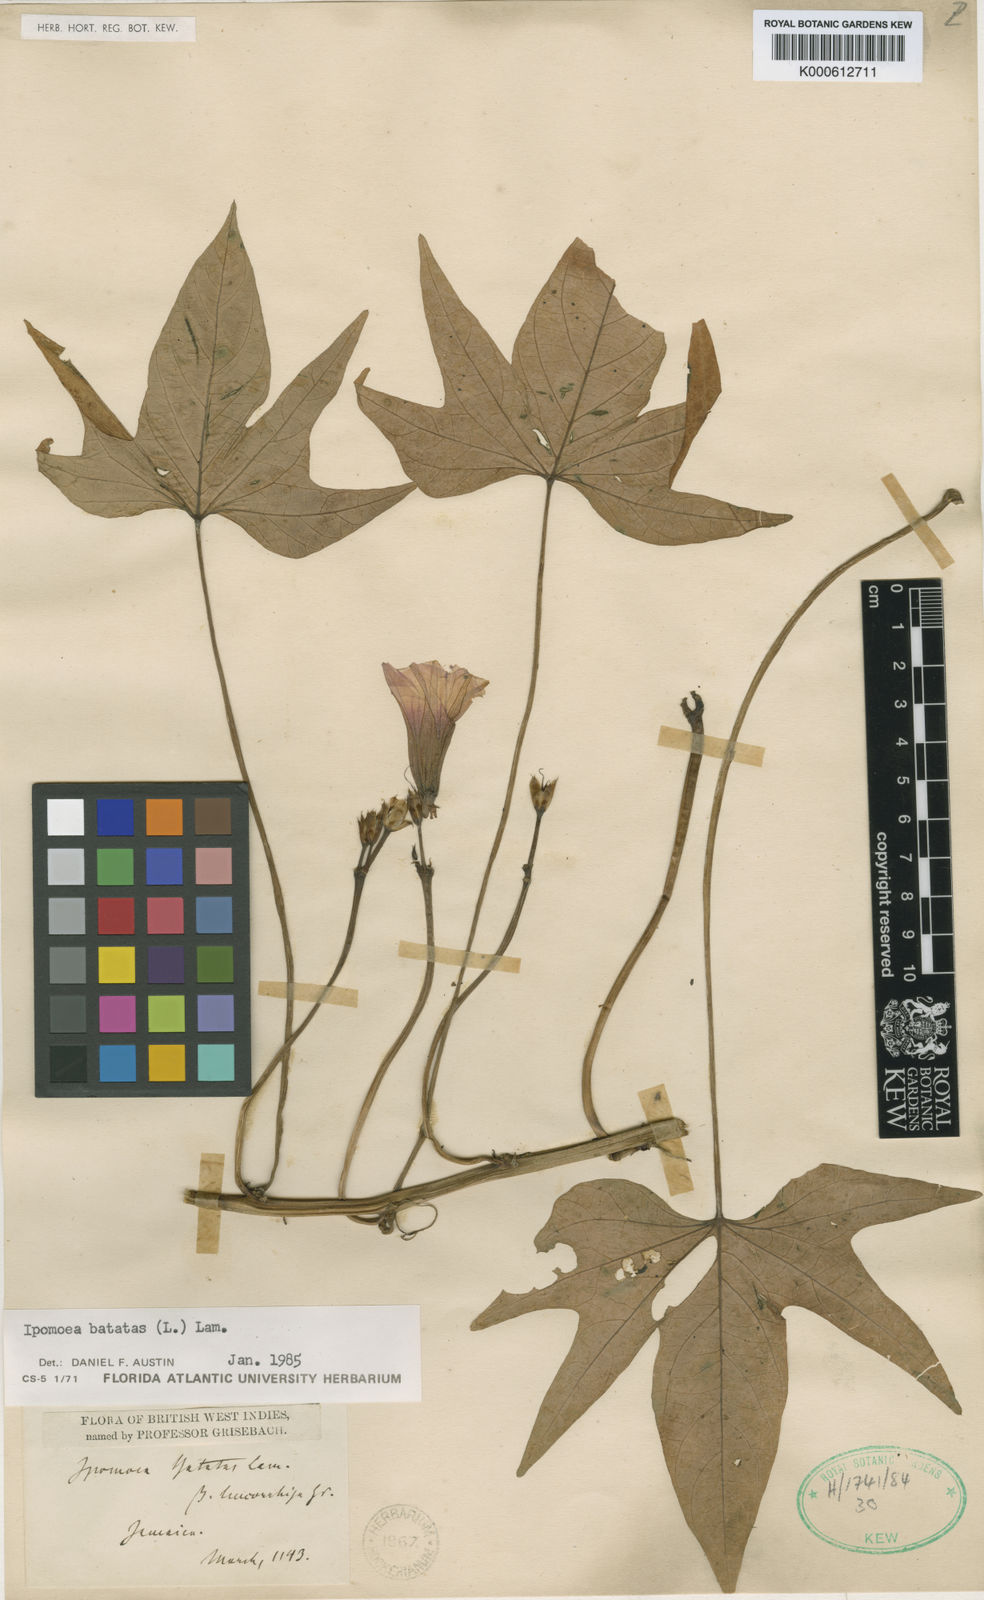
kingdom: Plantae
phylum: Tracheophyta
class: Magnoliopsida
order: Solanales
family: Convolvulaceae
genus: Ipomoea
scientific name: Ipomoea batatas
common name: Sweet-potato
